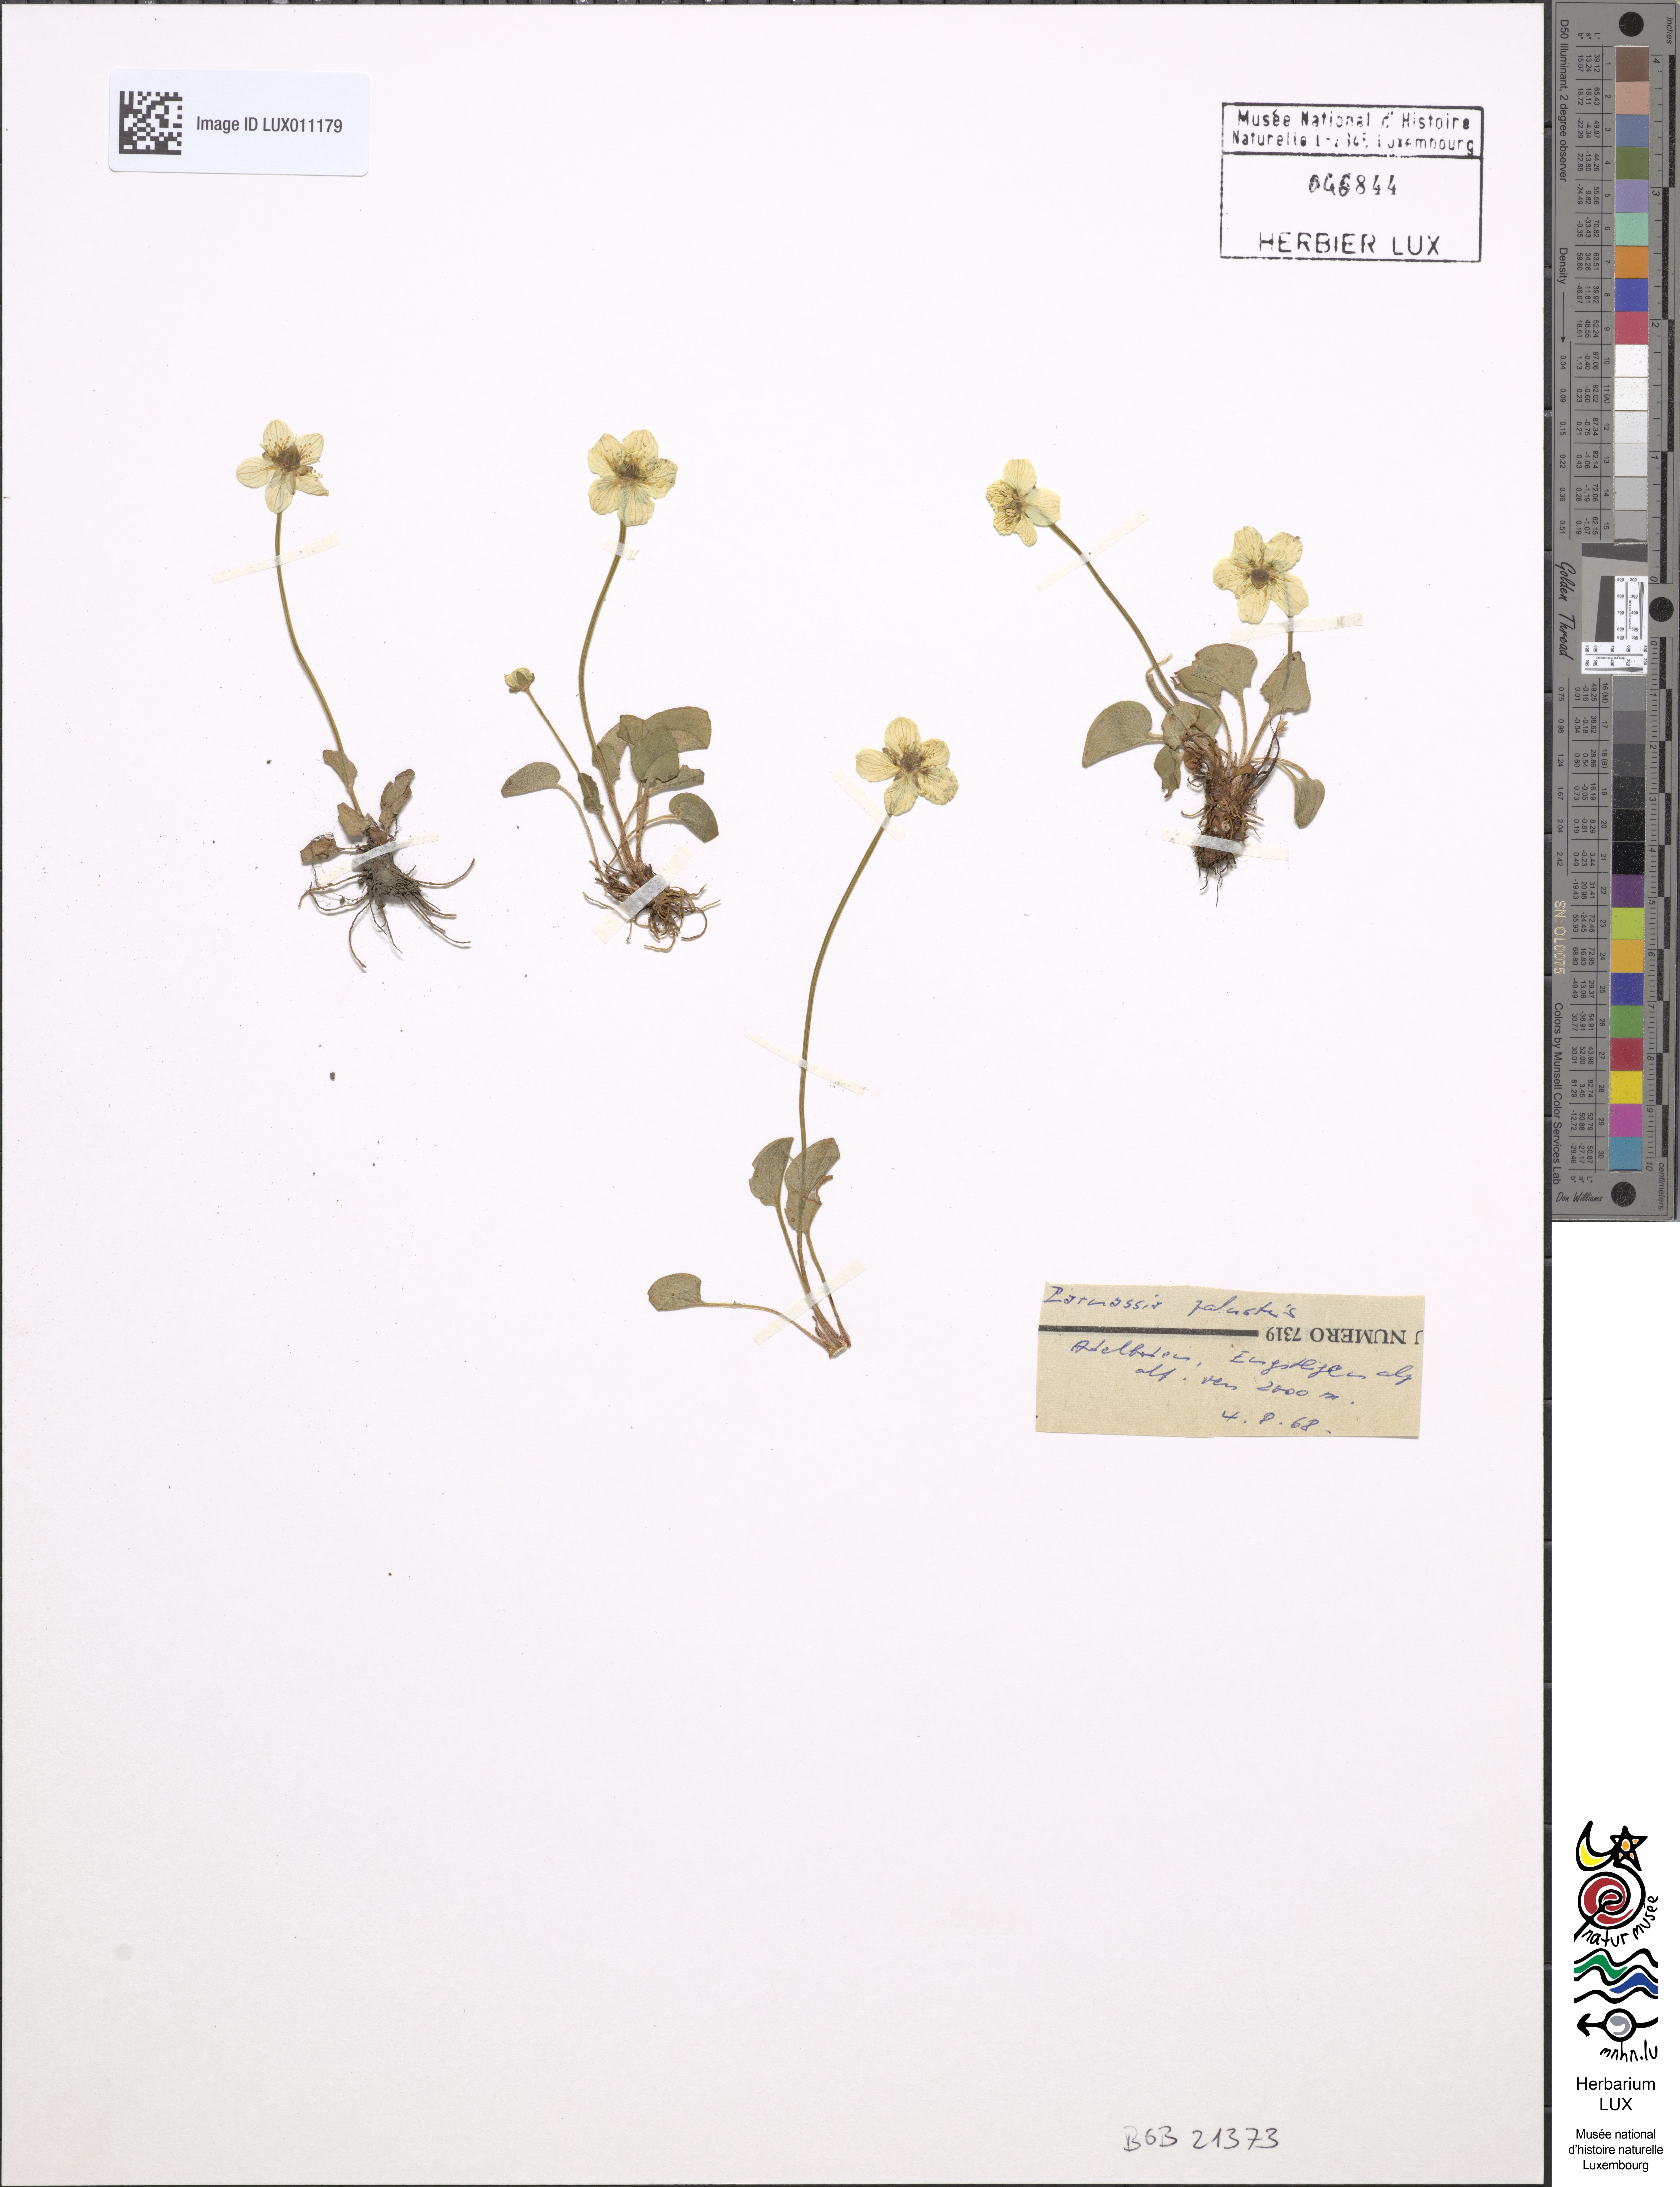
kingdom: Plantae
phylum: Tracheophyta
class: Magnoliopsida
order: Celastrales
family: Parnassiaceae
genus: Parnassia
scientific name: Parnassia palustris
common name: Grass-of-parnassus
